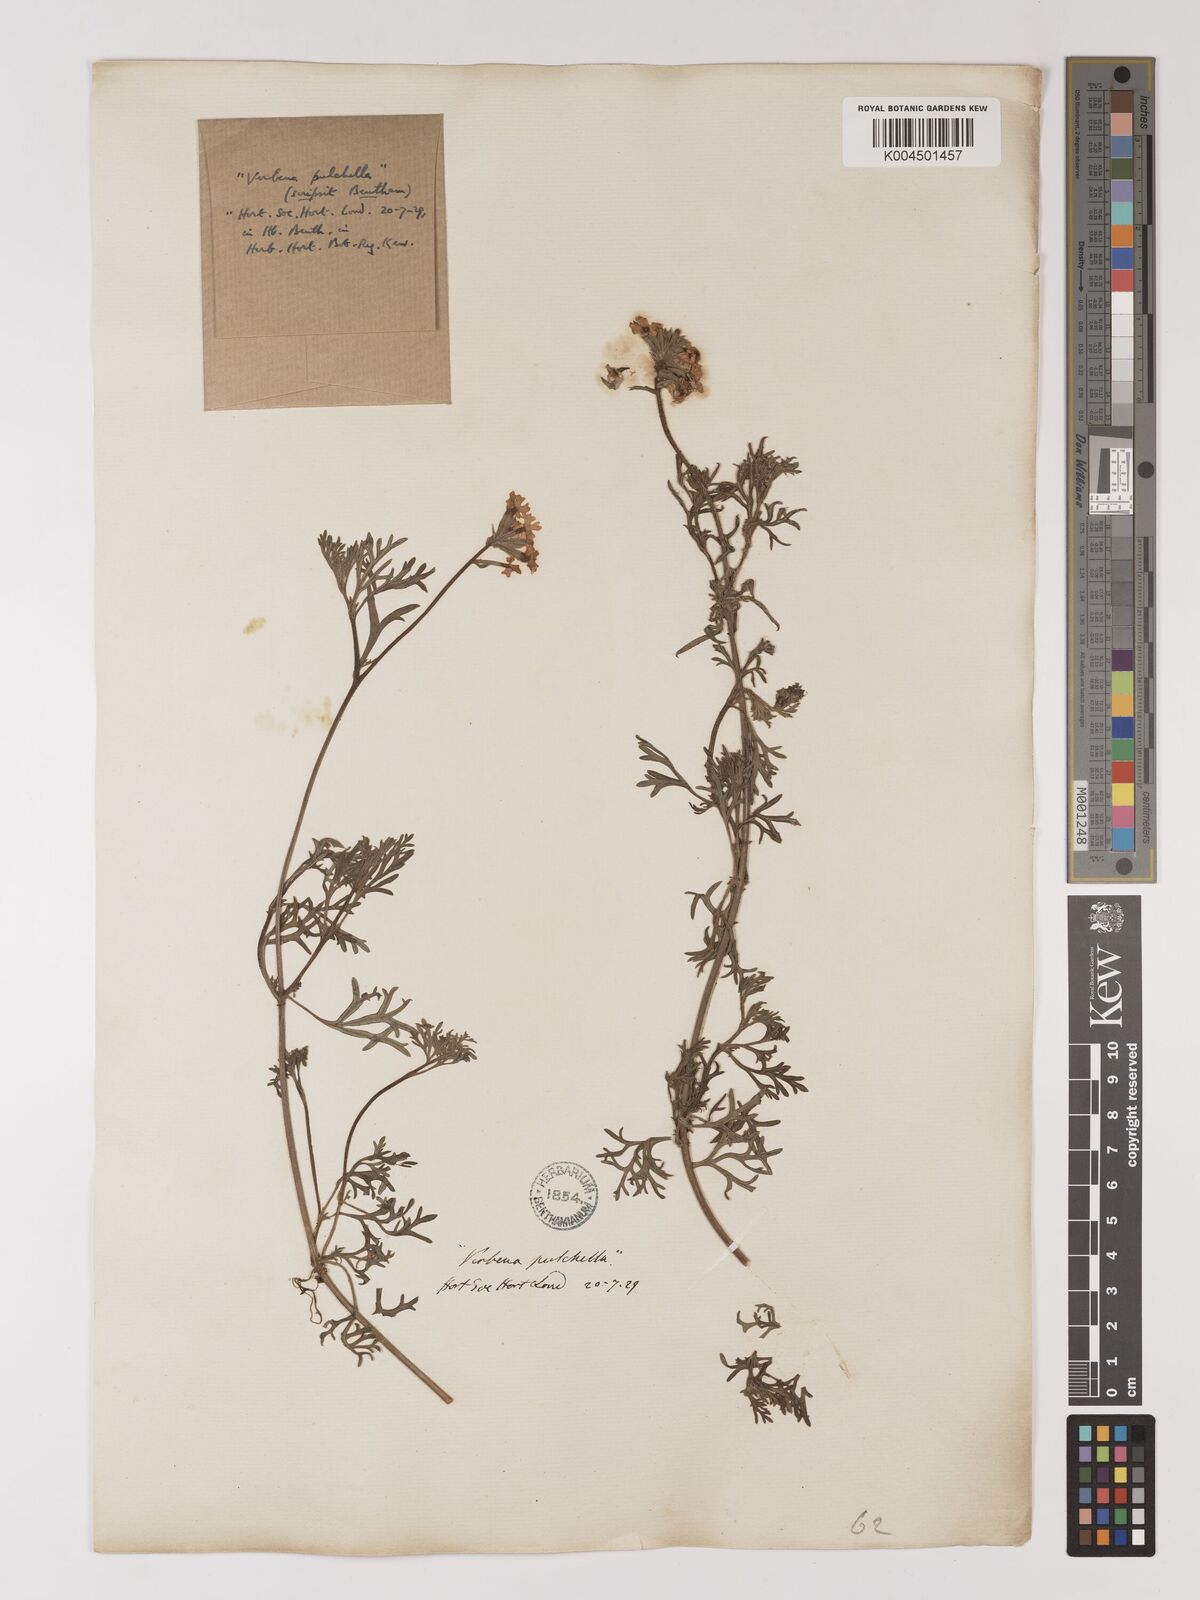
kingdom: Plantae
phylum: Tracheophyta
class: Magnoliopsida
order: Lamiales
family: Verbenaceae
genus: Verbena
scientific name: Verbena tenera
